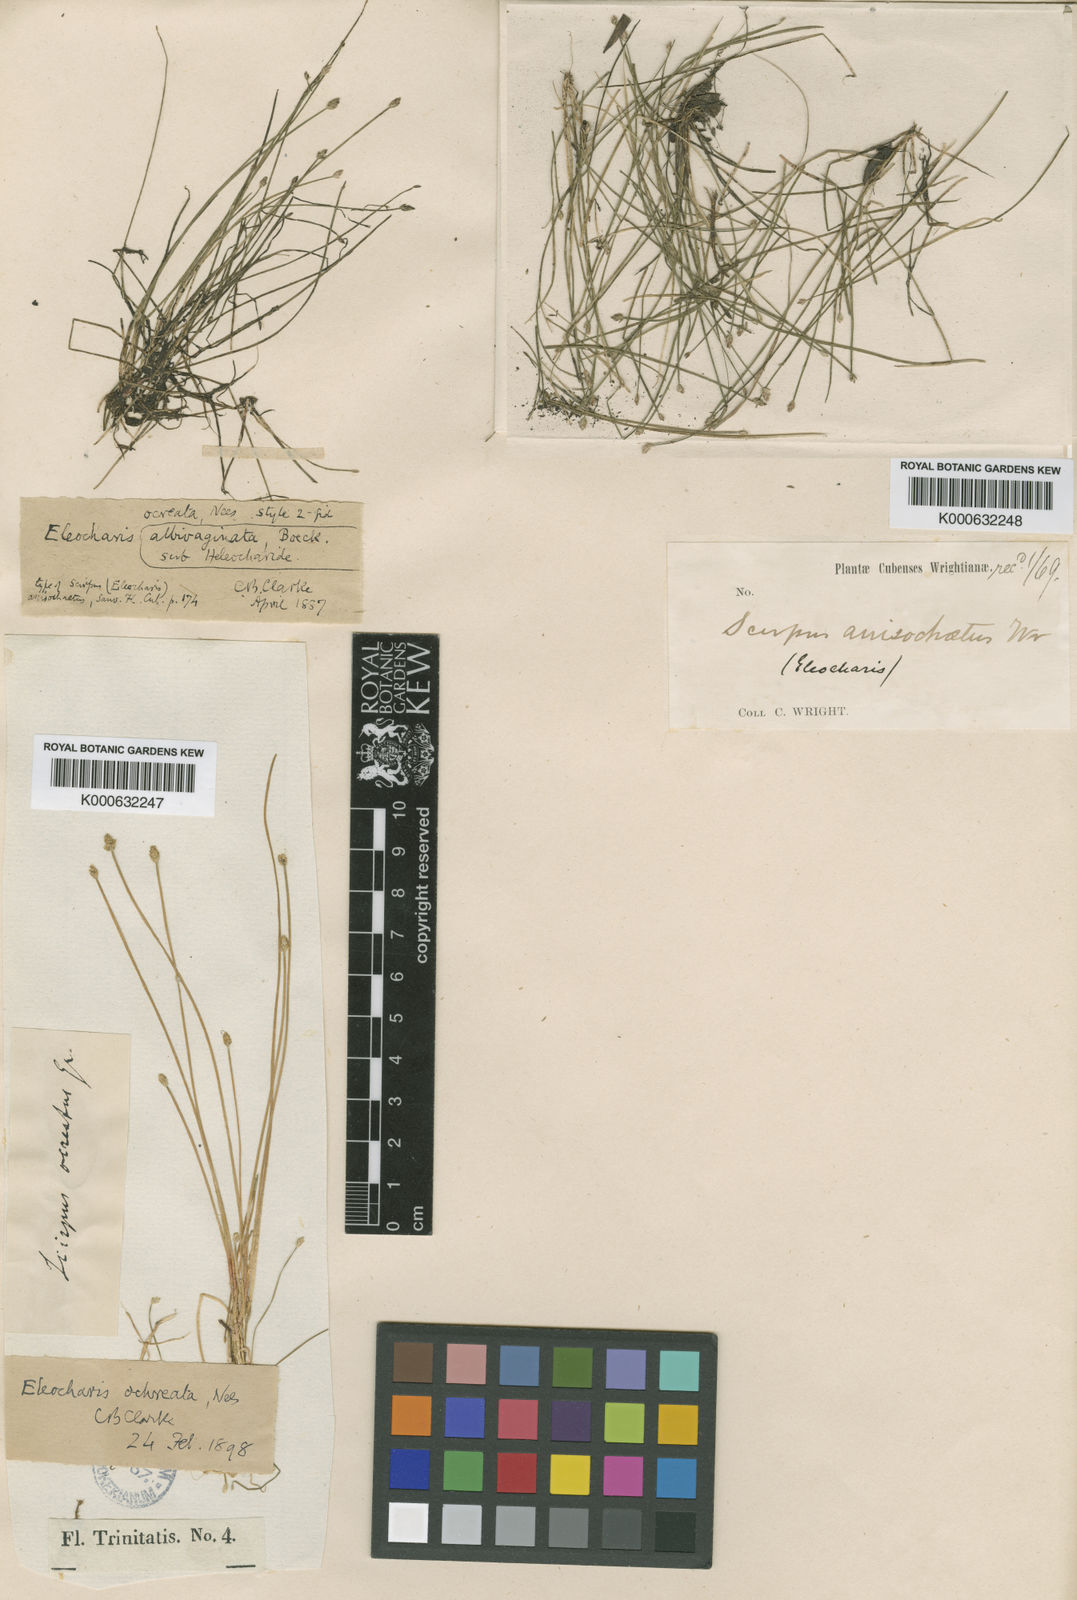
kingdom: Plantae
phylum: Tracheophyta
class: Liliopsida
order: Poales
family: Cyperaceae
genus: Eleocharis
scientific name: Eleocharis flavescens
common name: Yellow spikerush
